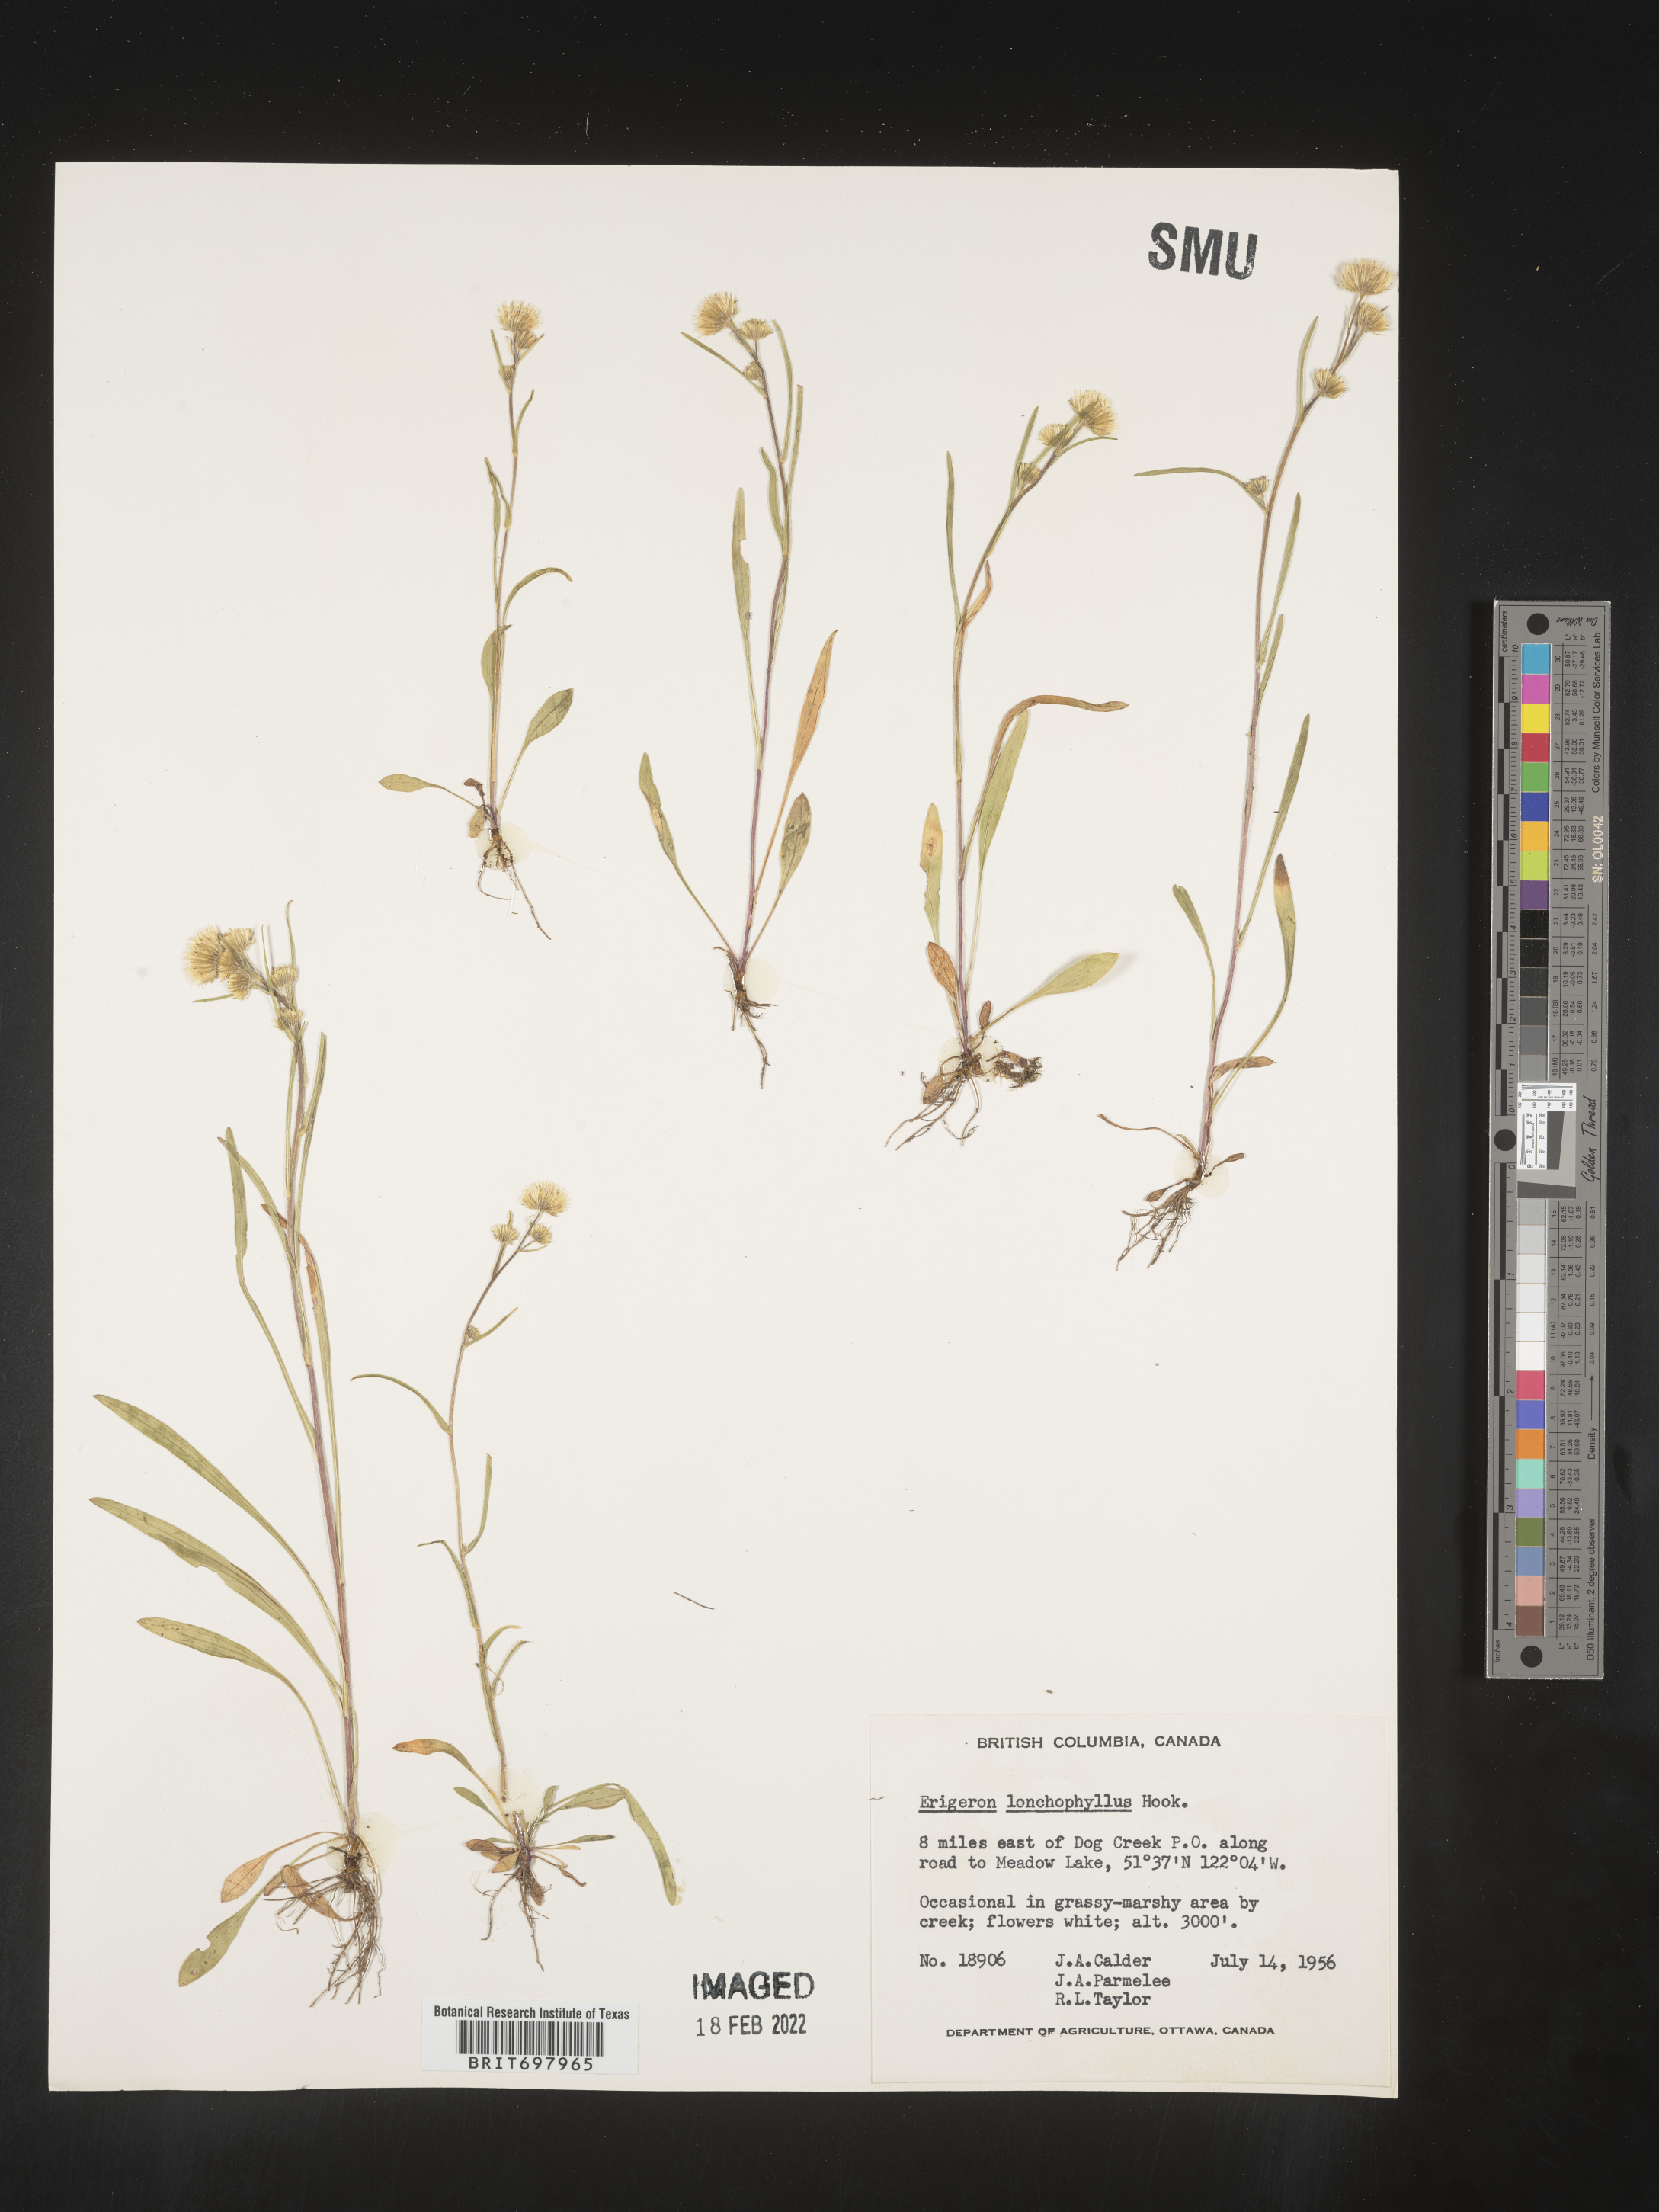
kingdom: Plantae
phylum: Tracheophyta
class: Magnoliopsida
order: Asterales
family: Asteraceae
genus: Erigeron
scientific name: Erigeron lonchophyllus
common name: Short-ray fleabane
